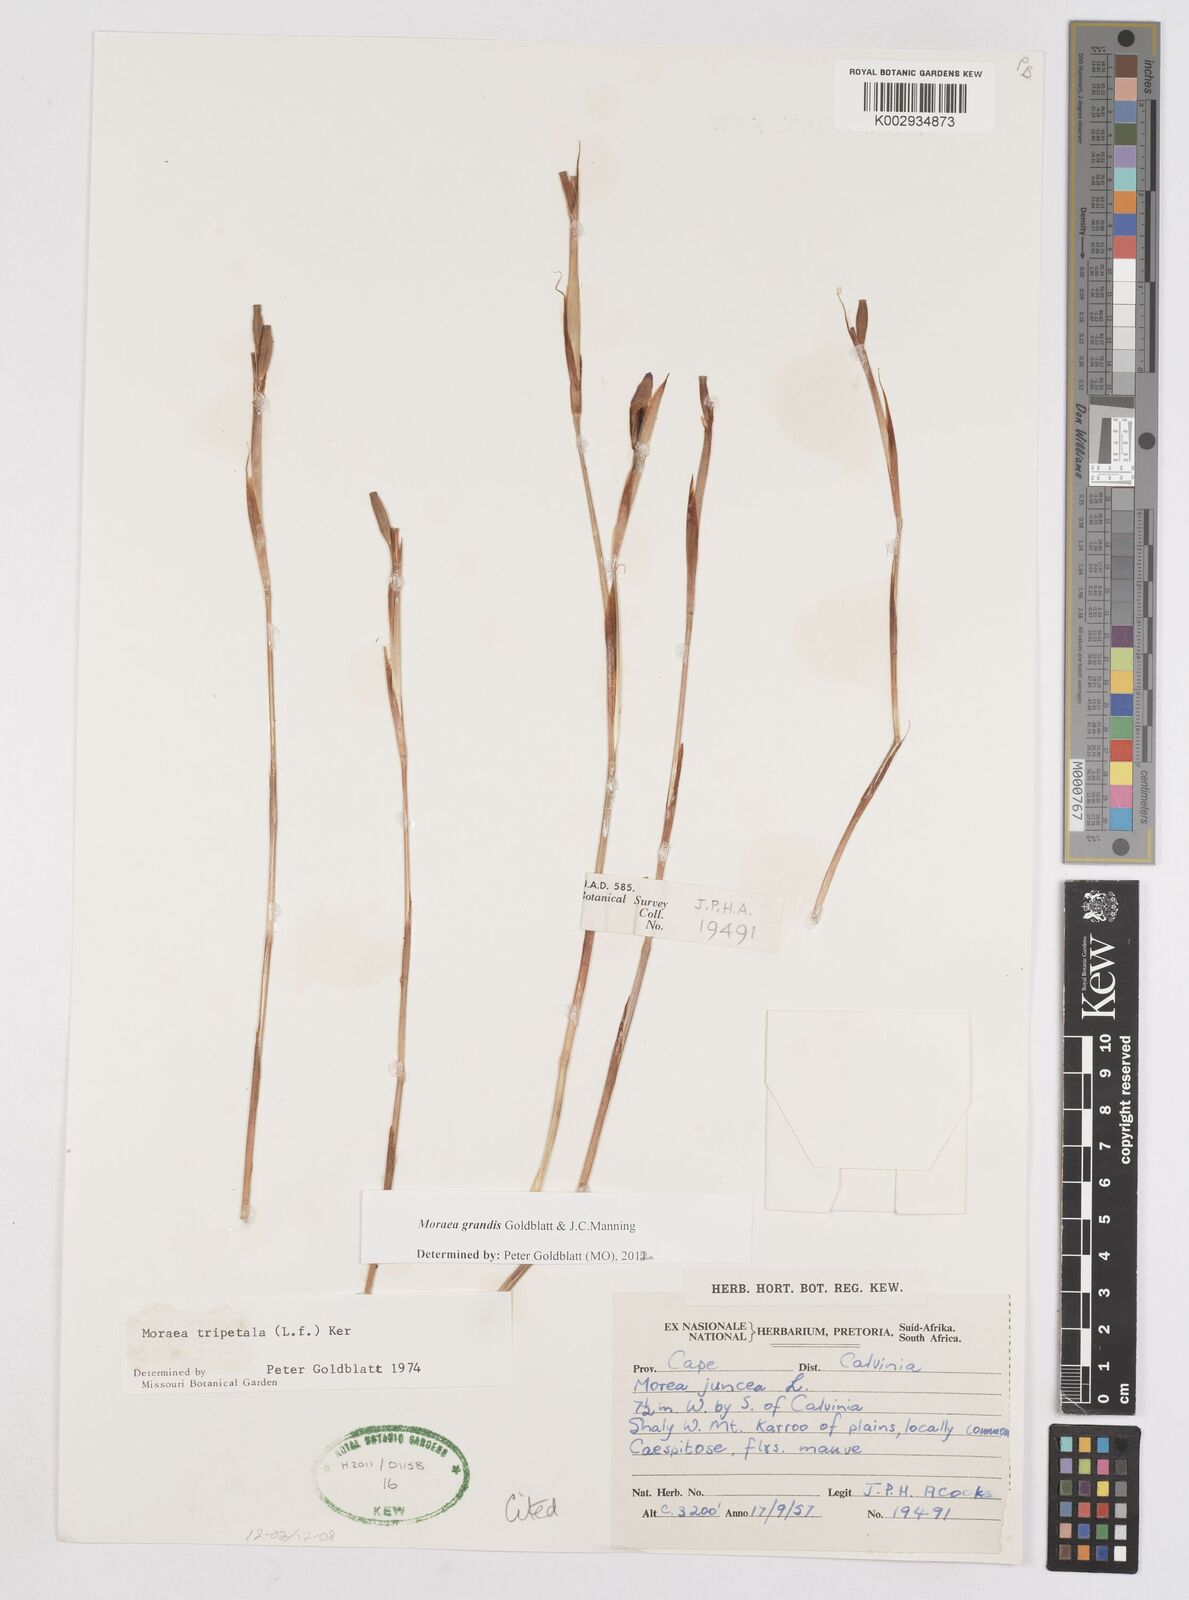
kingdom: Plantae
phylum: Tracheophyta
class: Liliopsida
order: Asparagales
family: Iridaceae
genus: Moraea
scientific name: Moraea grandis
